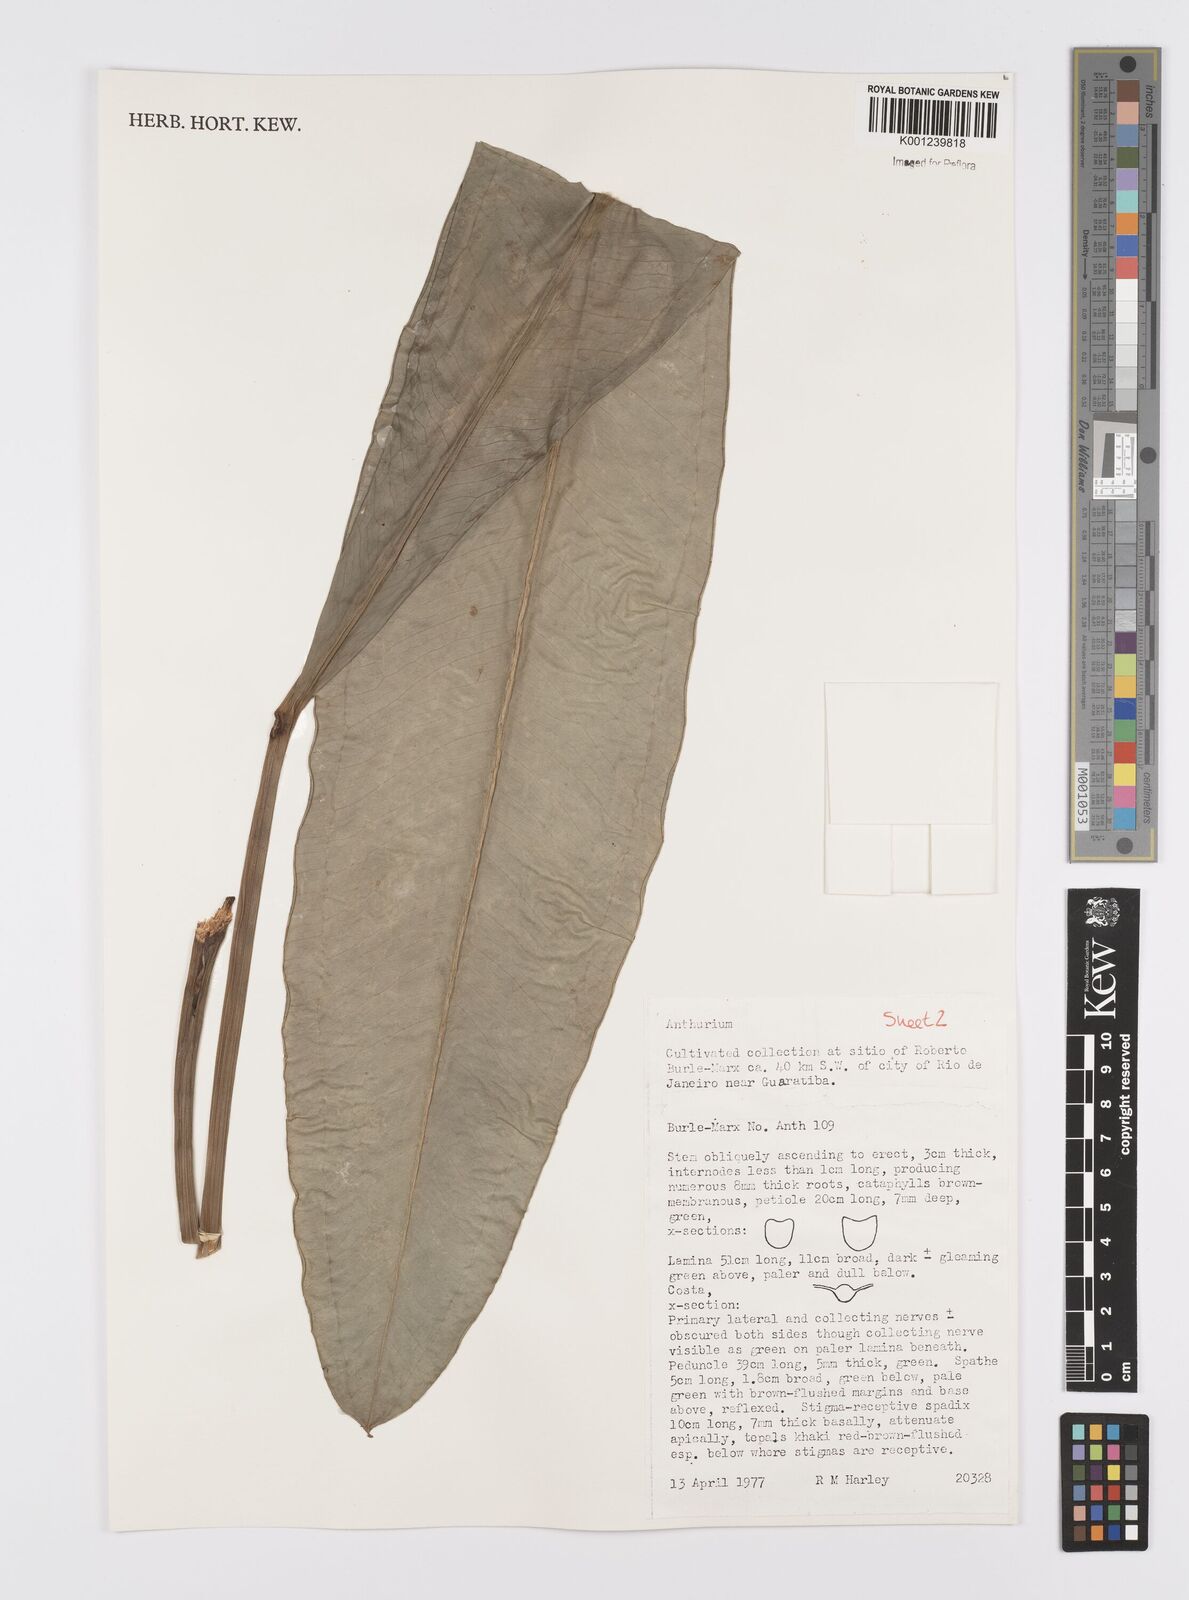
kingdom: Plantae
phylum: Tracheophyta
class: Liliopsida
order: Alismatales
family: Araceae
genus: Anthurium
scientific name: Anthurium
